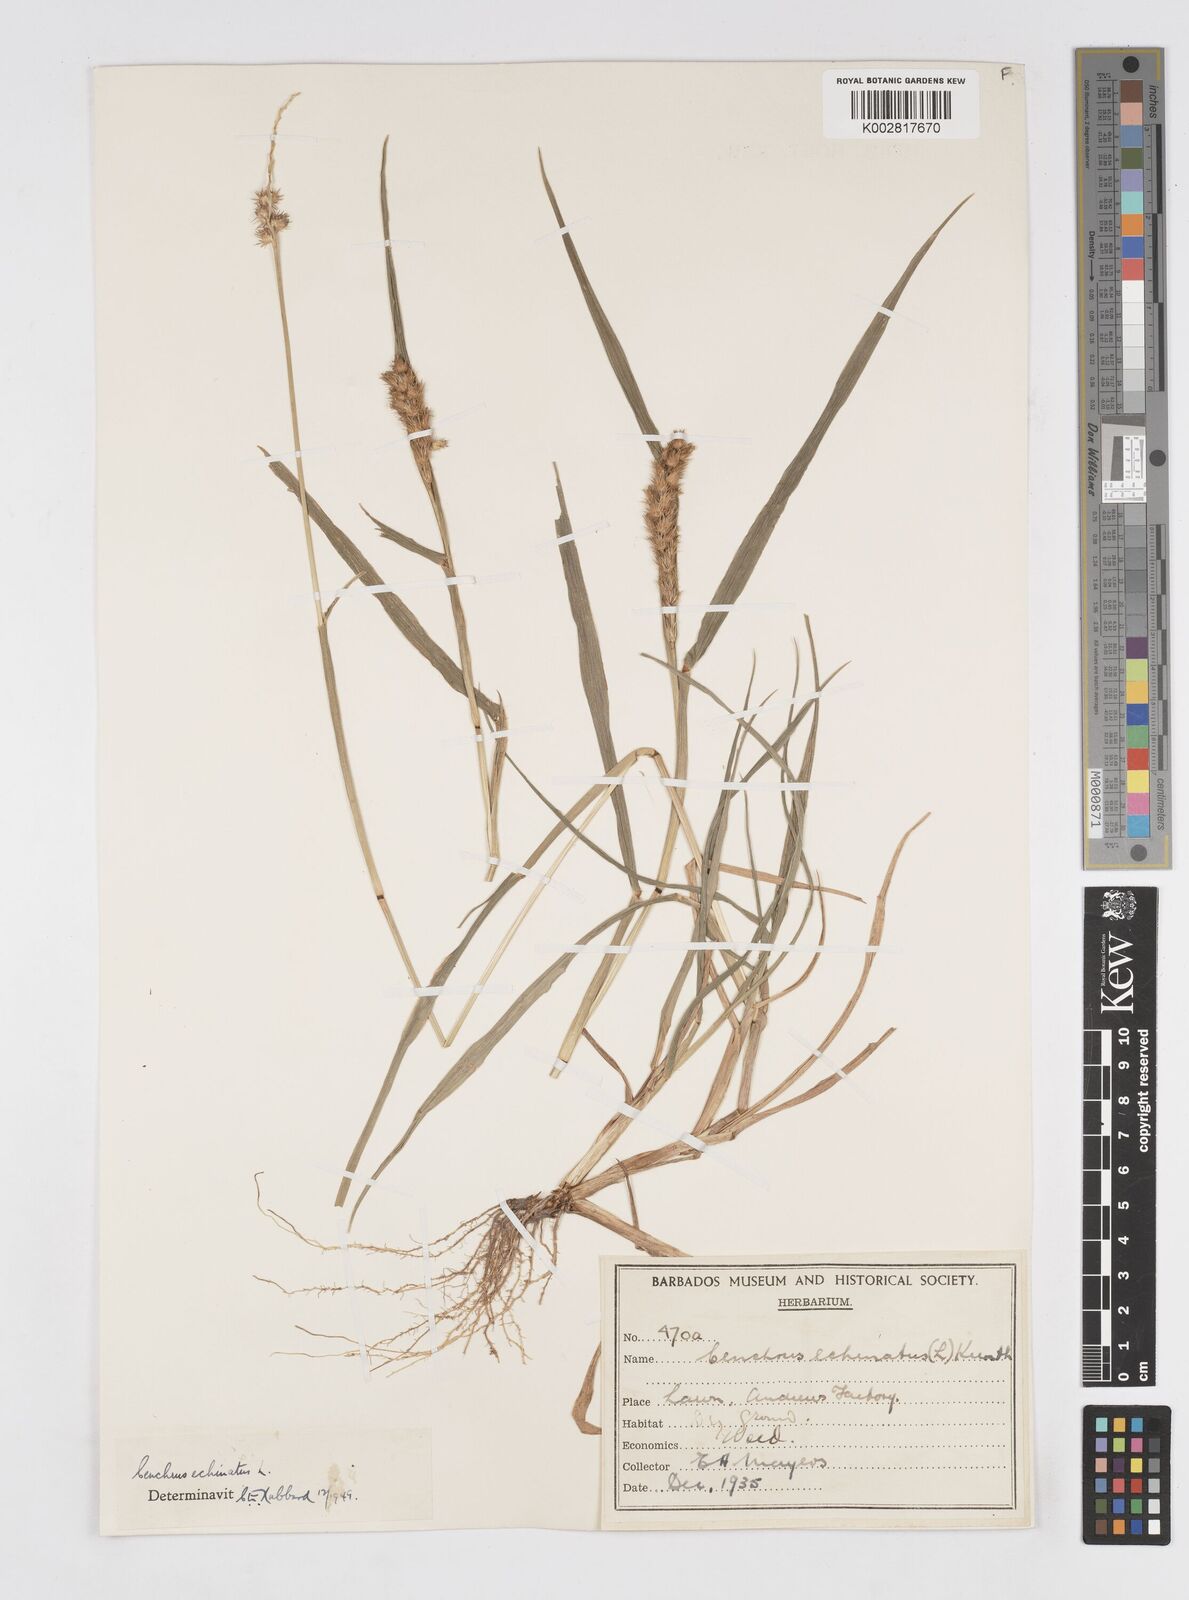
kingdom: Plantae
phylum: Tracheophyta
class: Liliopsida
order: Poales
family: Poaceae
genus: Cenchrus
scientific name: Cenchrus
